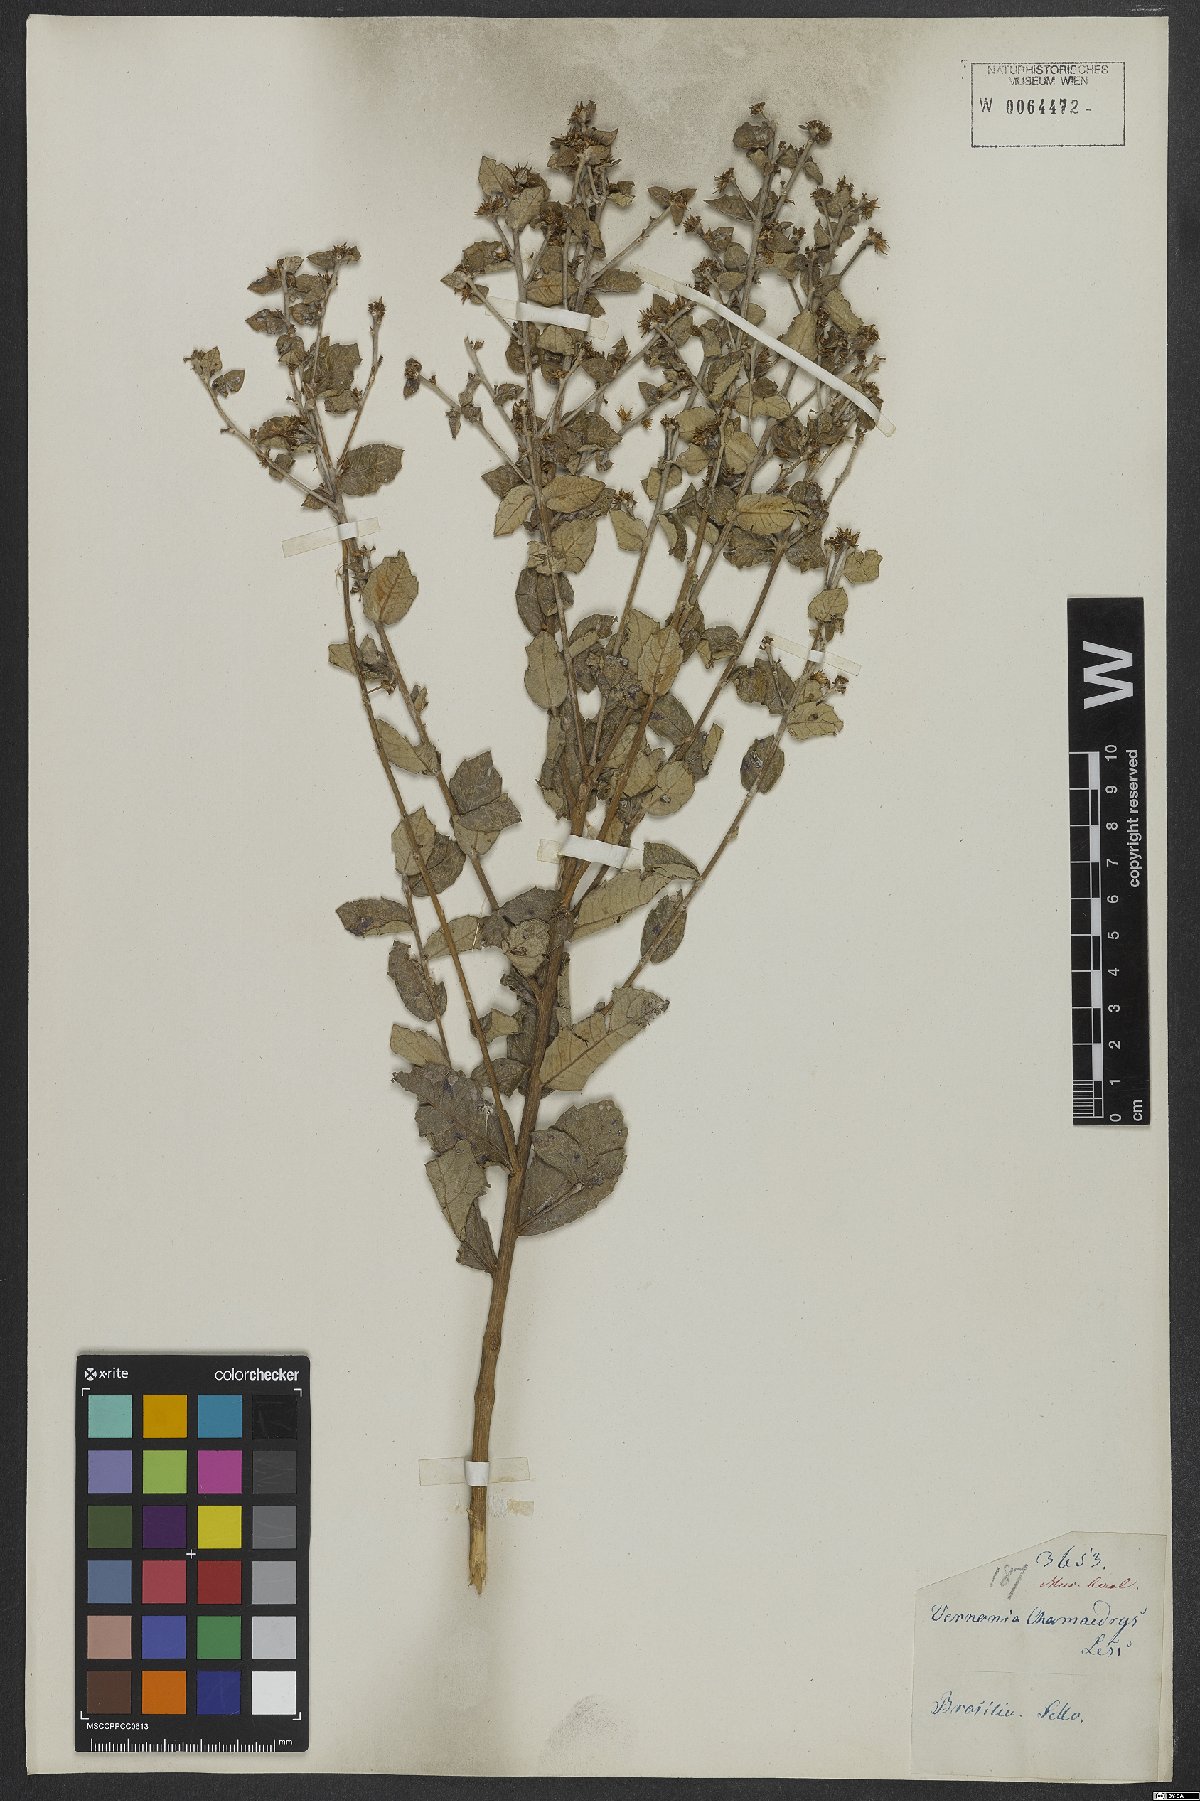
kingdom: Plantae
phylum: Tracheophyta
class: Magnoliopsida
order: Asterales
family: Asteraceae
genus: Vernonanthura
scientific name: Vernonanthura chamaedrys
